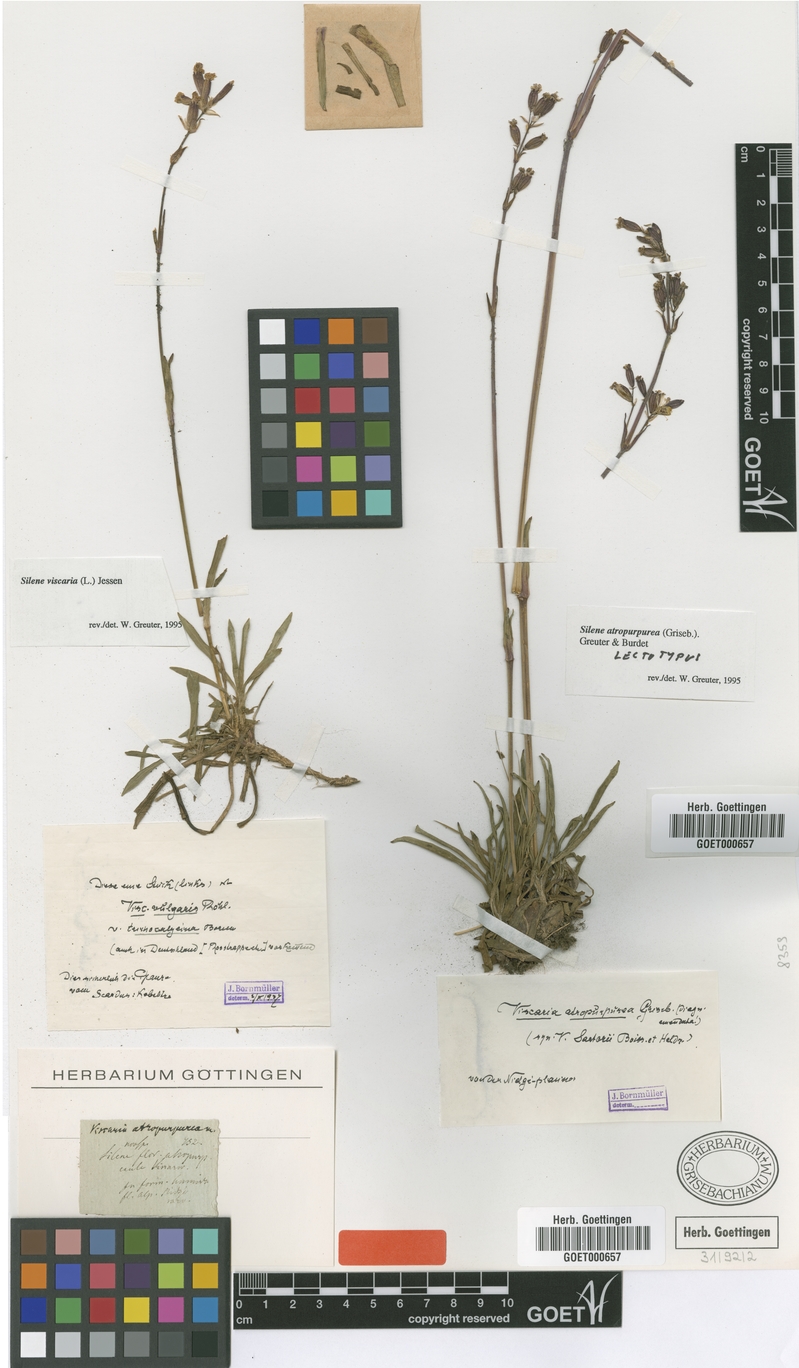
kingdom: Plantae
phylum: Tracheophyta
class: Magnoliopsida
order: Caryophyllales
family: Caryophyllaceae
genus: Viscaria
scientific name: Viscaria atropurpurea
